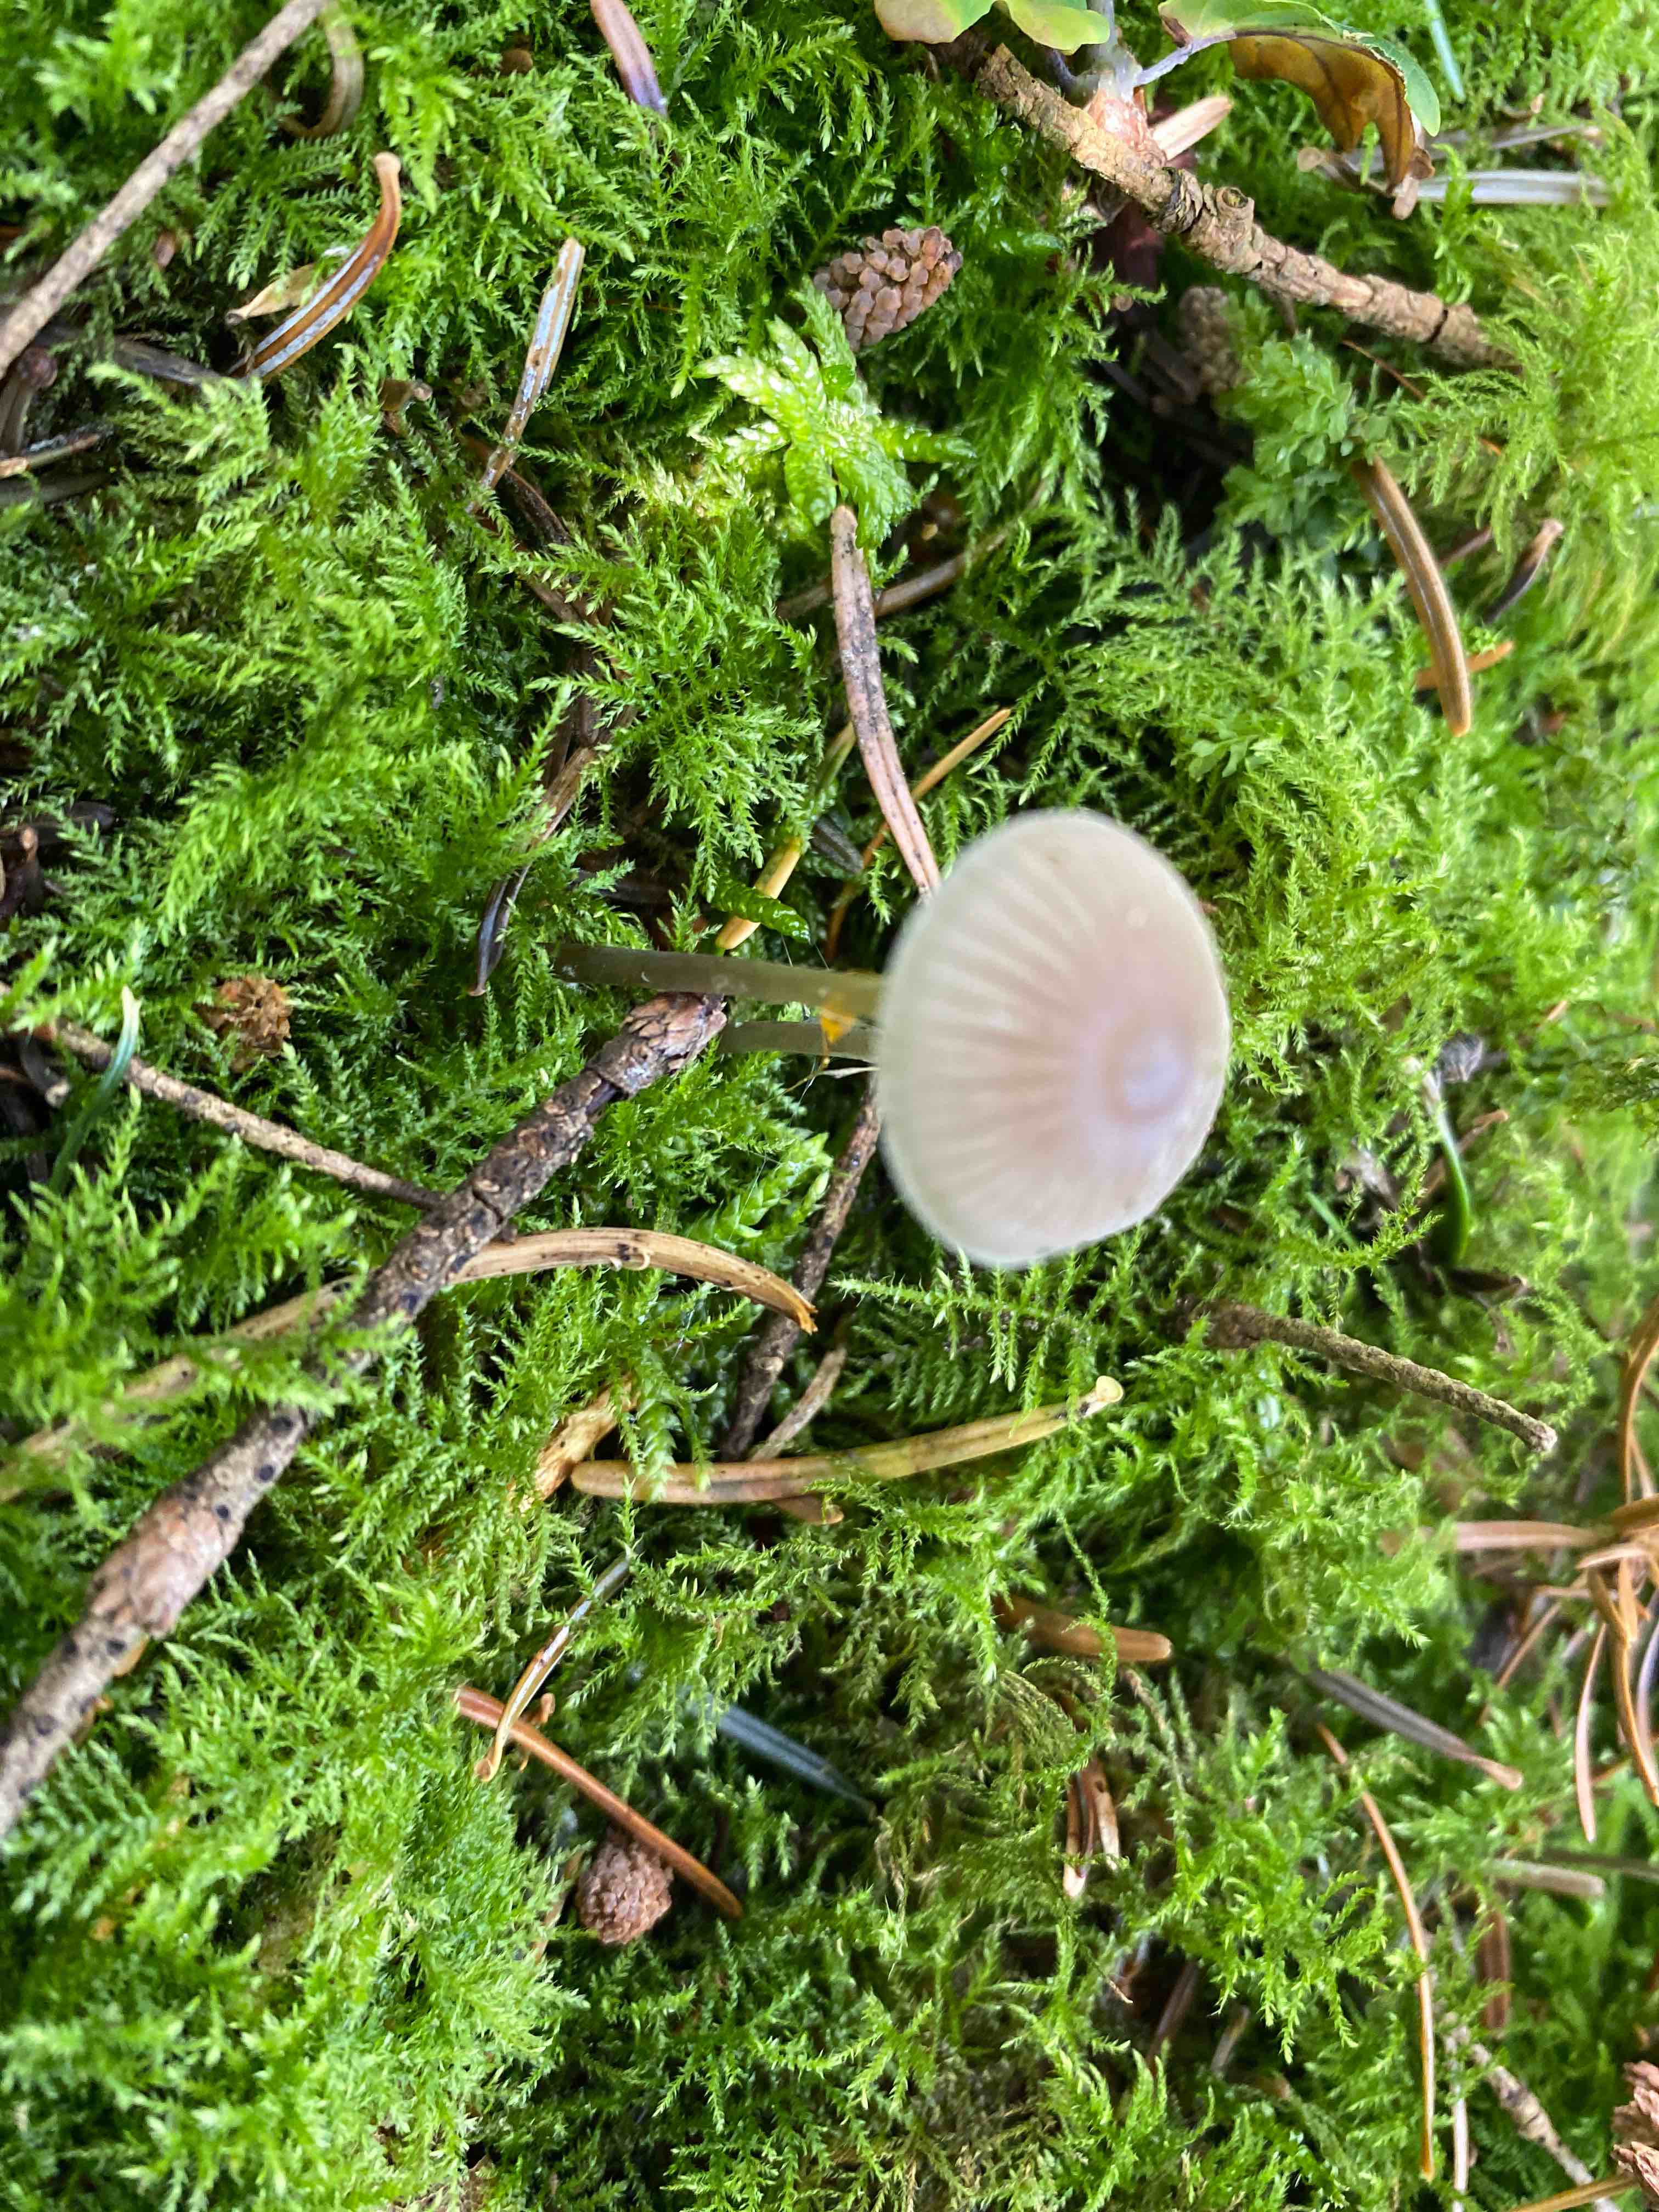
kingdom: Fungi
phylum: Basidiomycota
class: Agaricomycetes
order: Agaricales
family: Mycenaceae
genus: Mycena
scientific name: Mycena leptocephala
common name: klor-huesvamp
